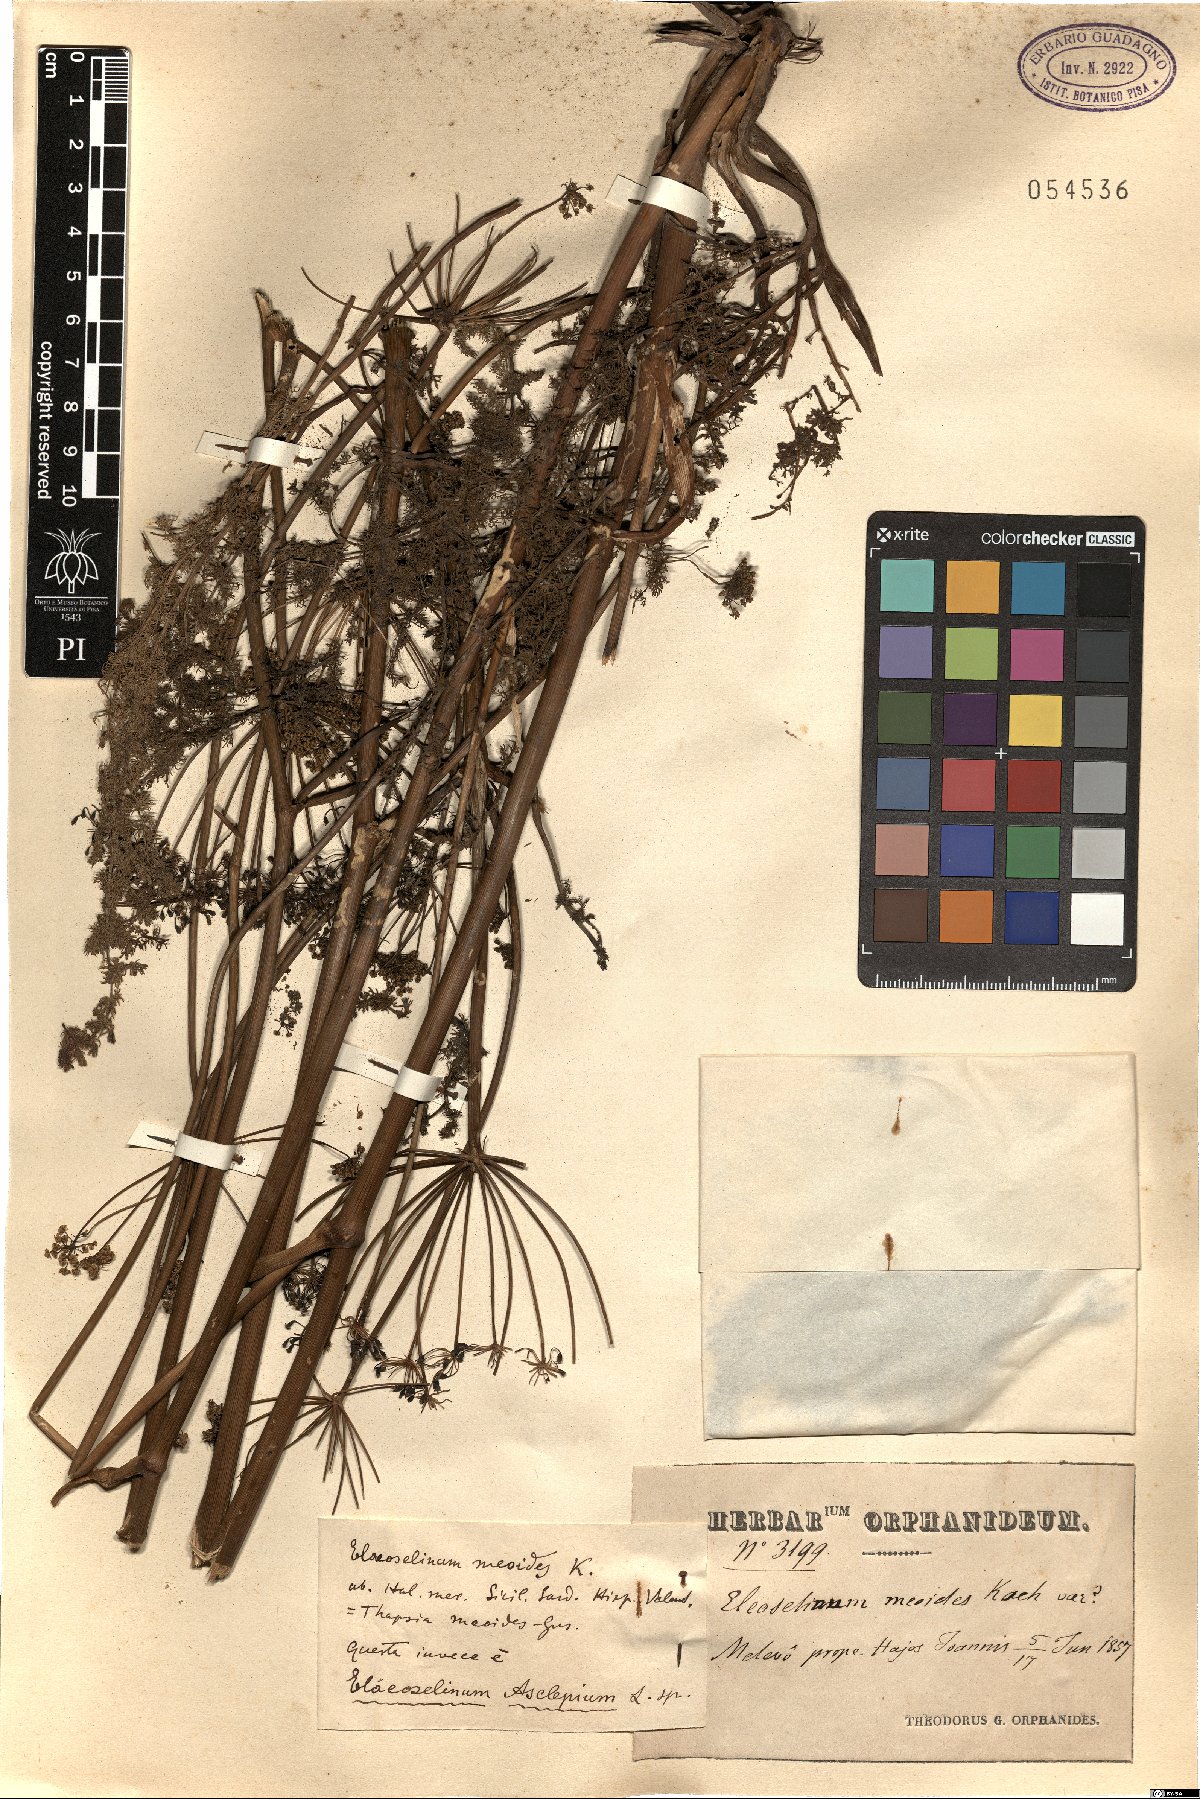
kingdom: Plantae
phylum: Tracheophyta
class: Magnoliopsida
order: Apiales
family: Apiaceae
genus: Thapsia
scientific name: Thapsia asclepium
